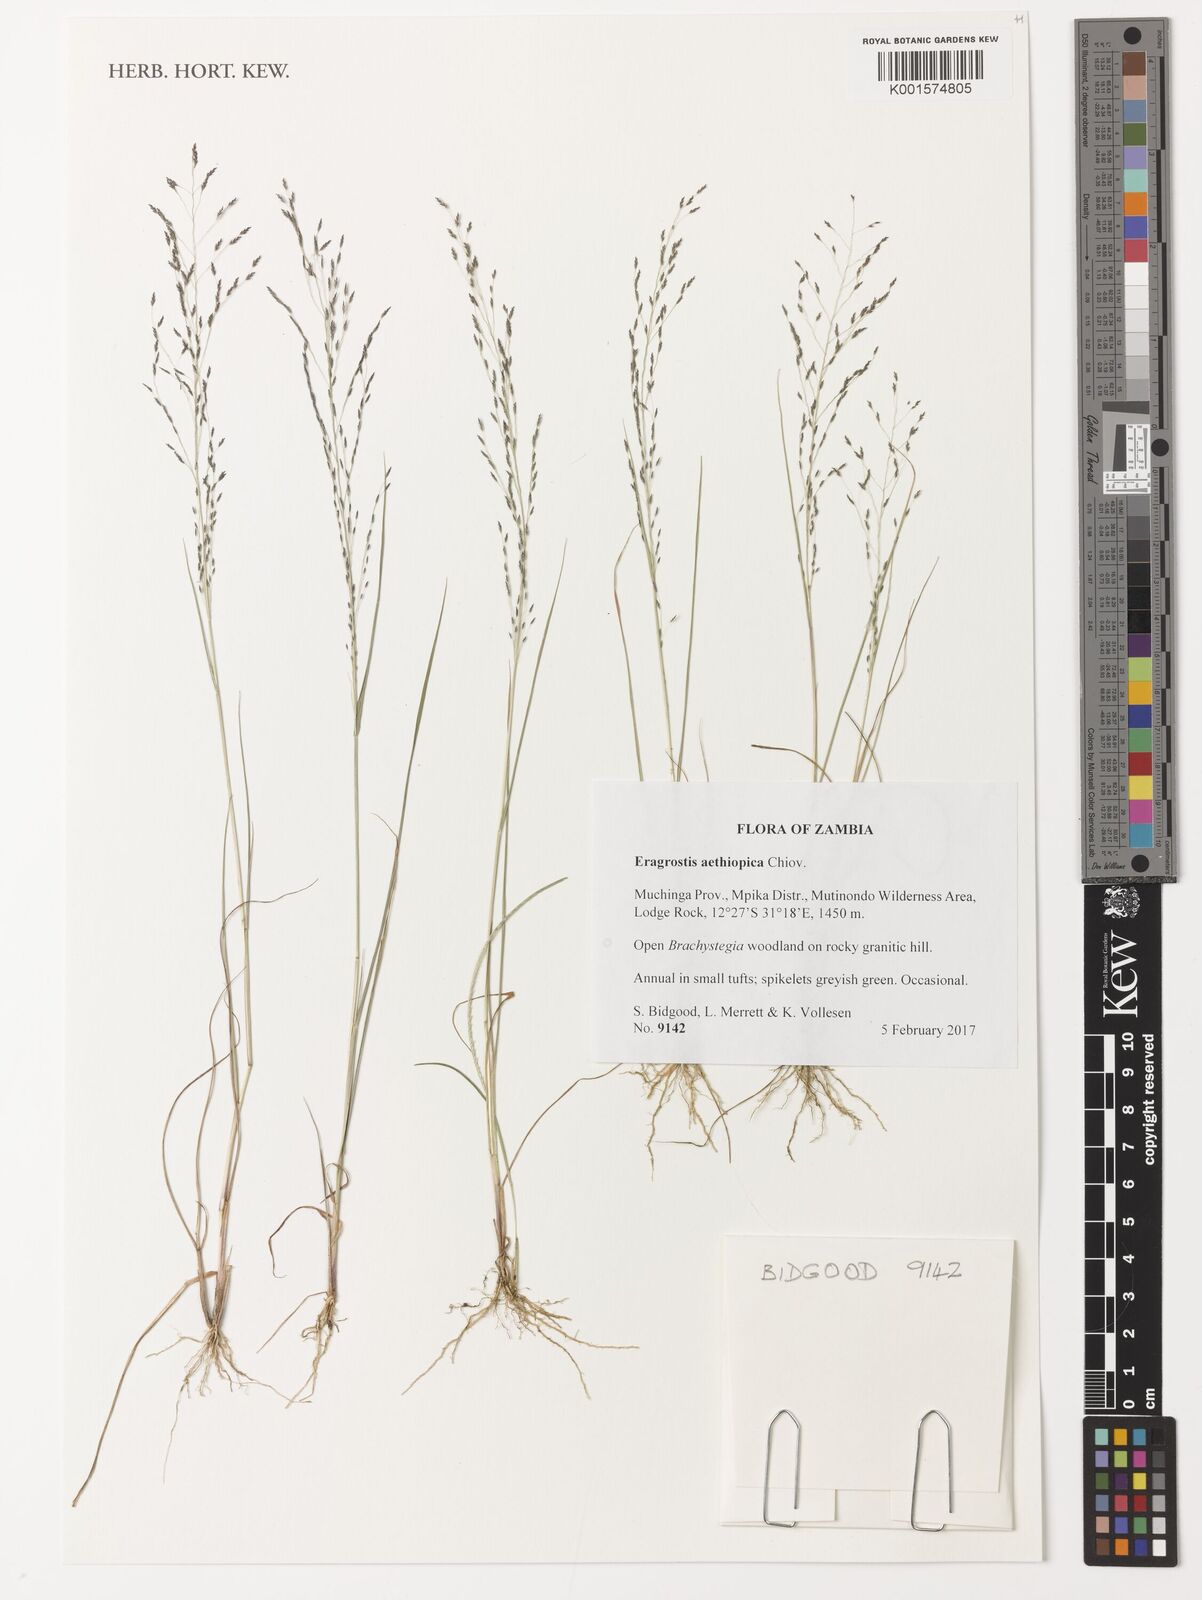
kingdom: Plantae
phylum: Tracheophyta
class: Liliopsida
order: Poales
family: Poaceae
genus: Eragrostis
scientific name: Eragrostis aethiopica
